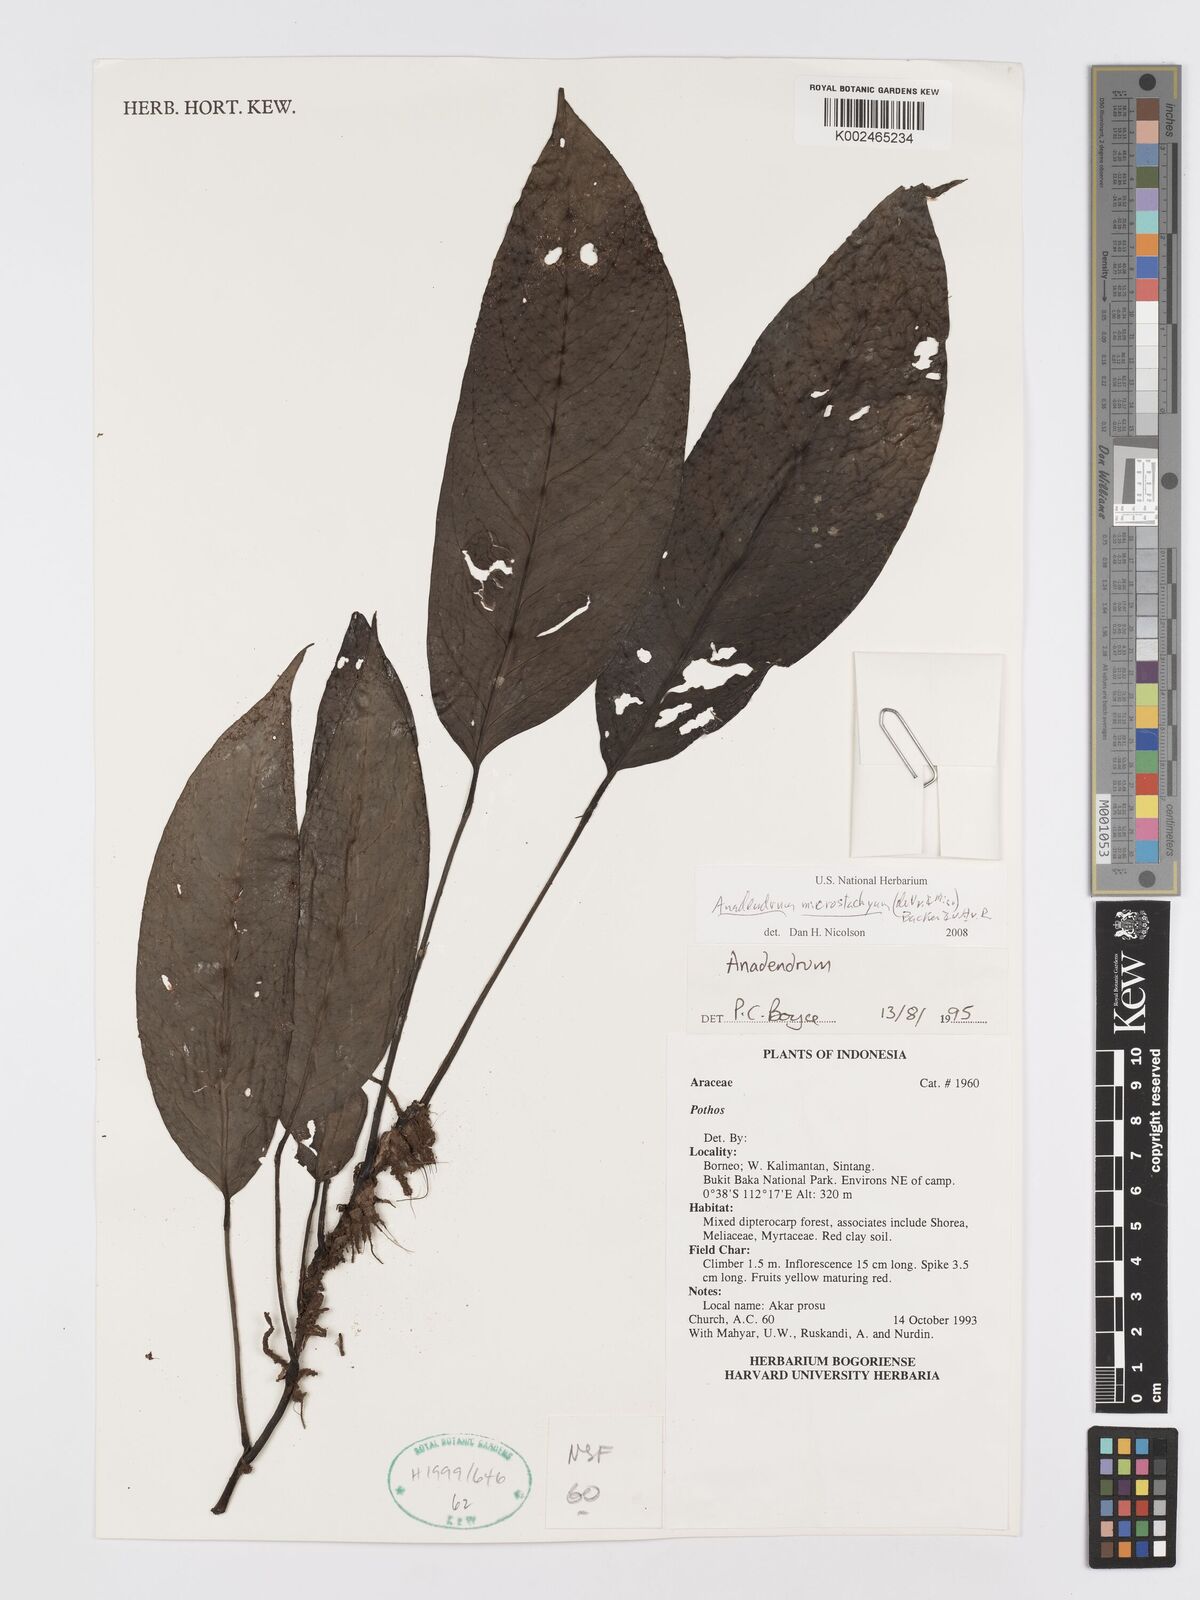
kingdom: Plantae
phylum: Tracheophyta
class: Liliopsida
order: Alismatales
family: Araceae
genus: Anadendrum
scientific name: Anadendrum microstachyum
